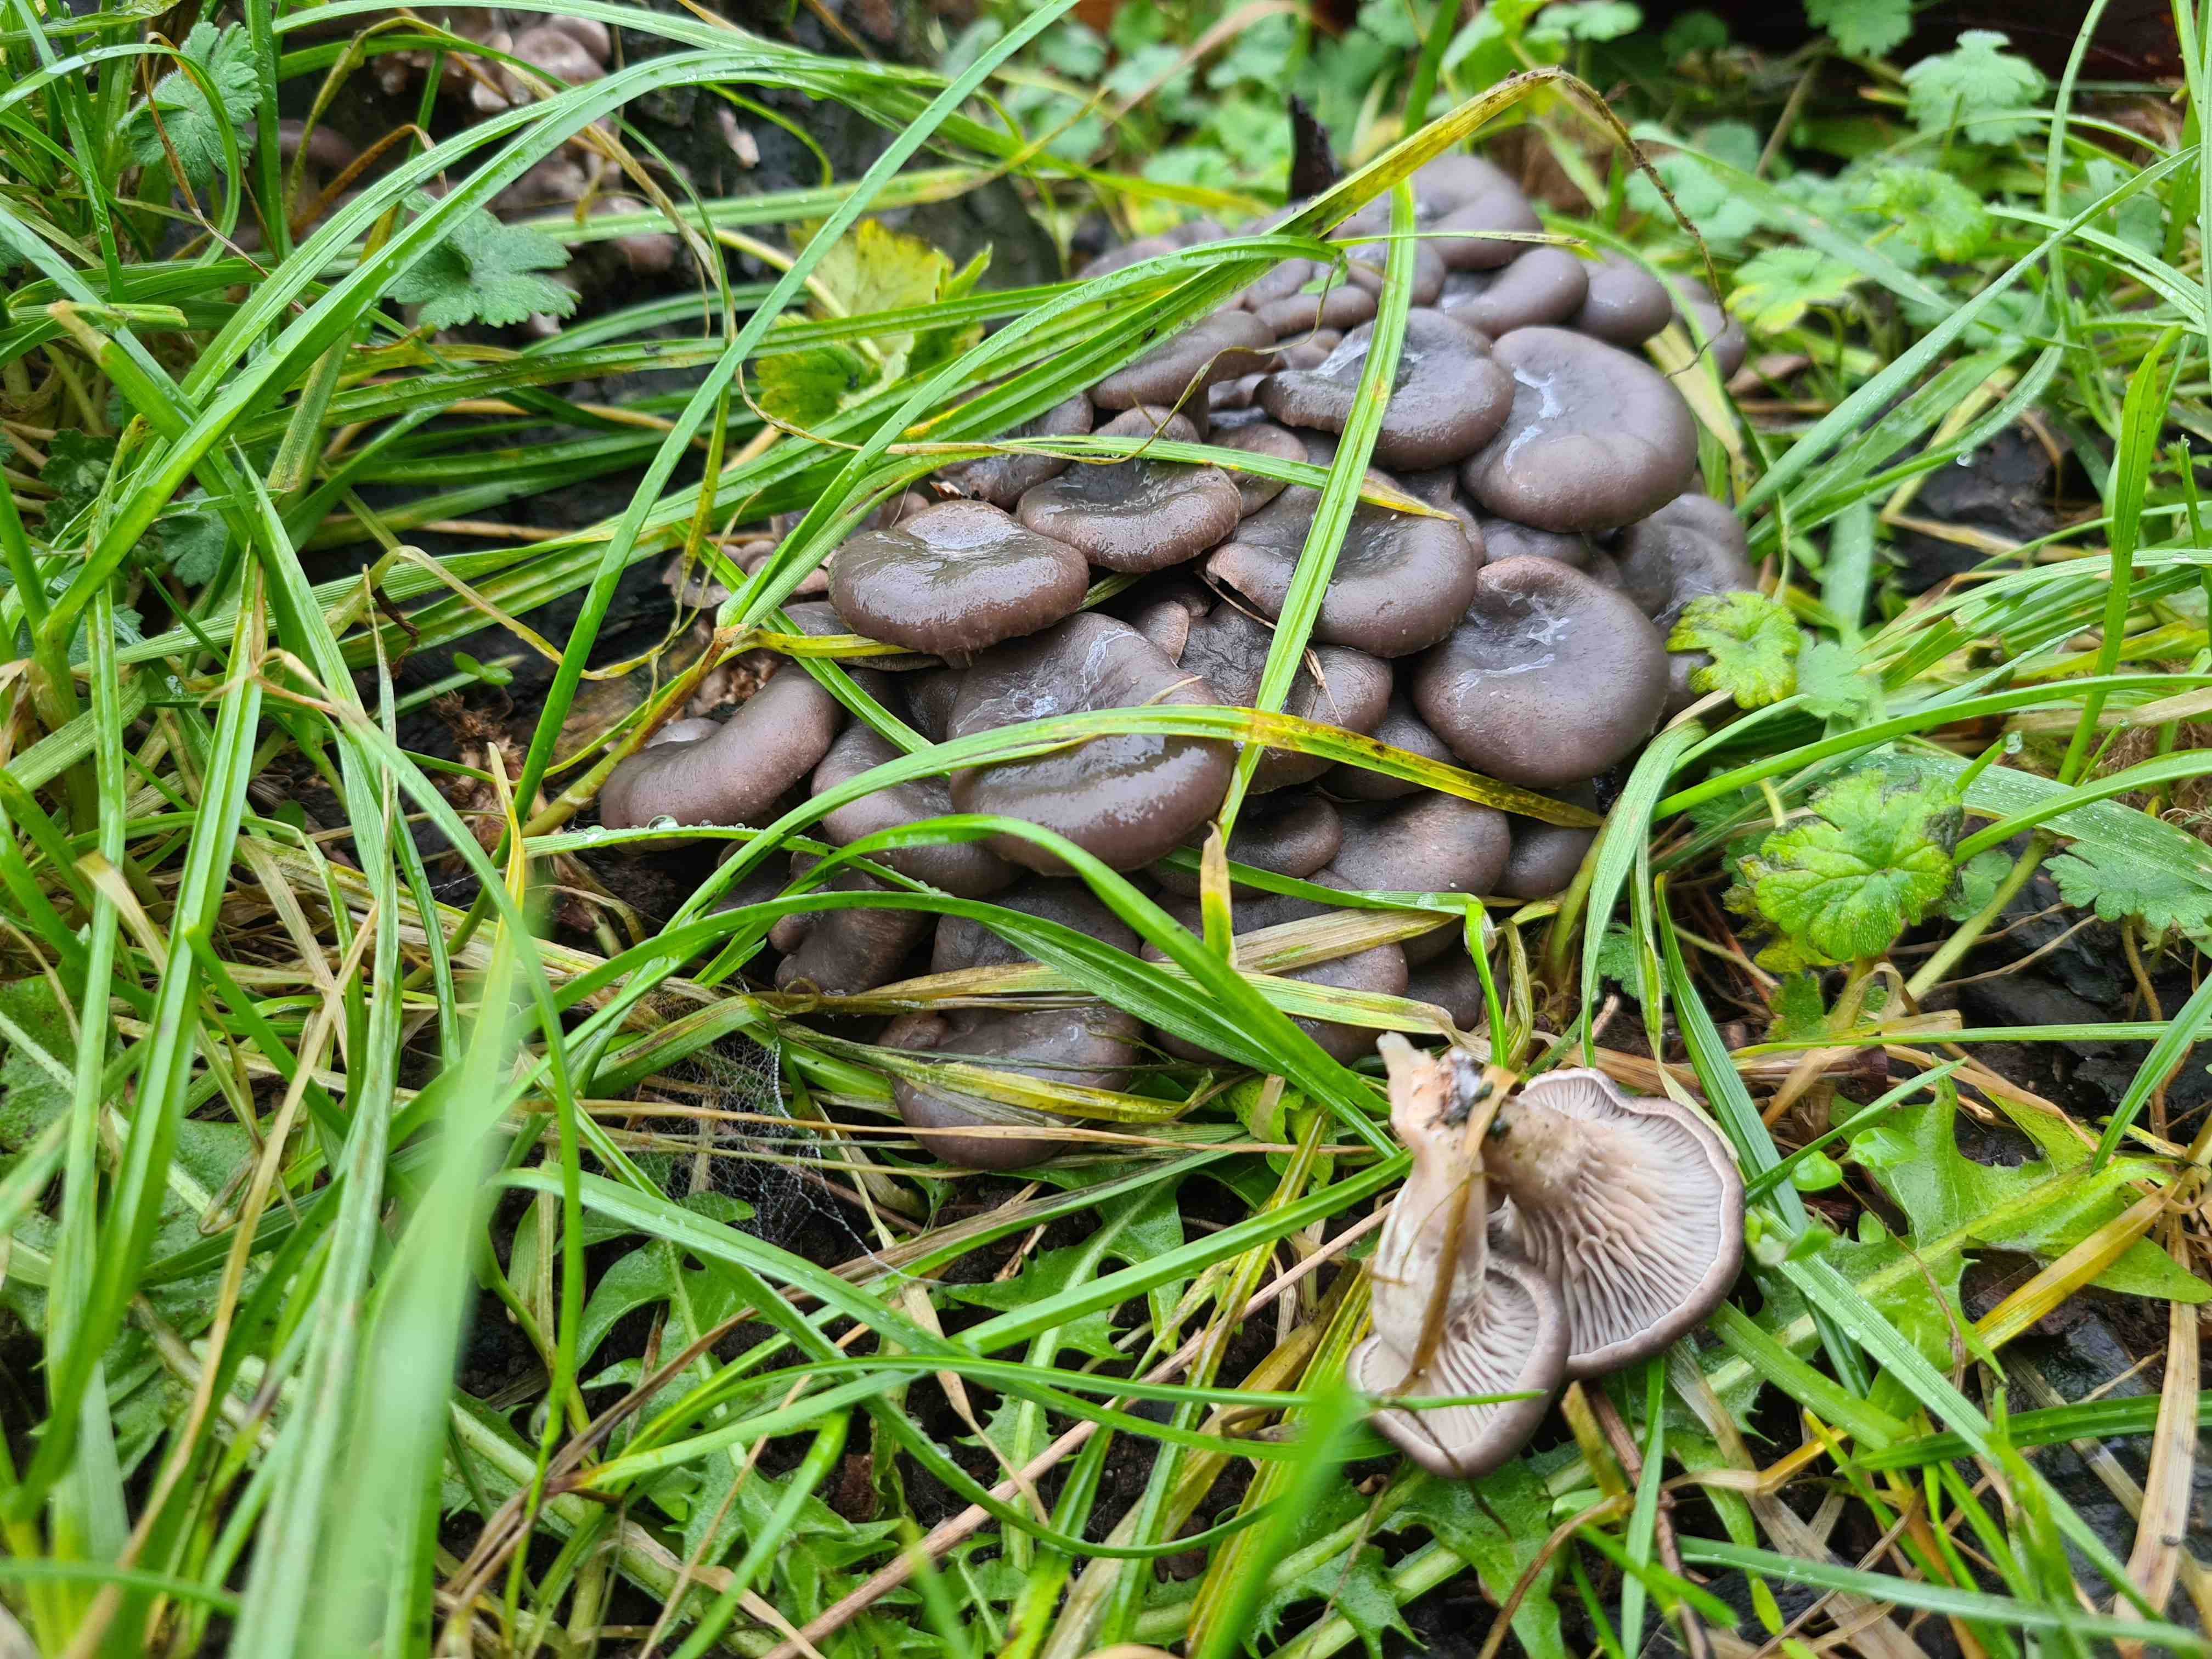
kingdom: Fungi
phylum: Basidiomycota
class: Agaricomycetes
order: Agaricales
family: Pleurotaceae
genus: Pleurotus
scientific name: Pleurotus ostreatus
